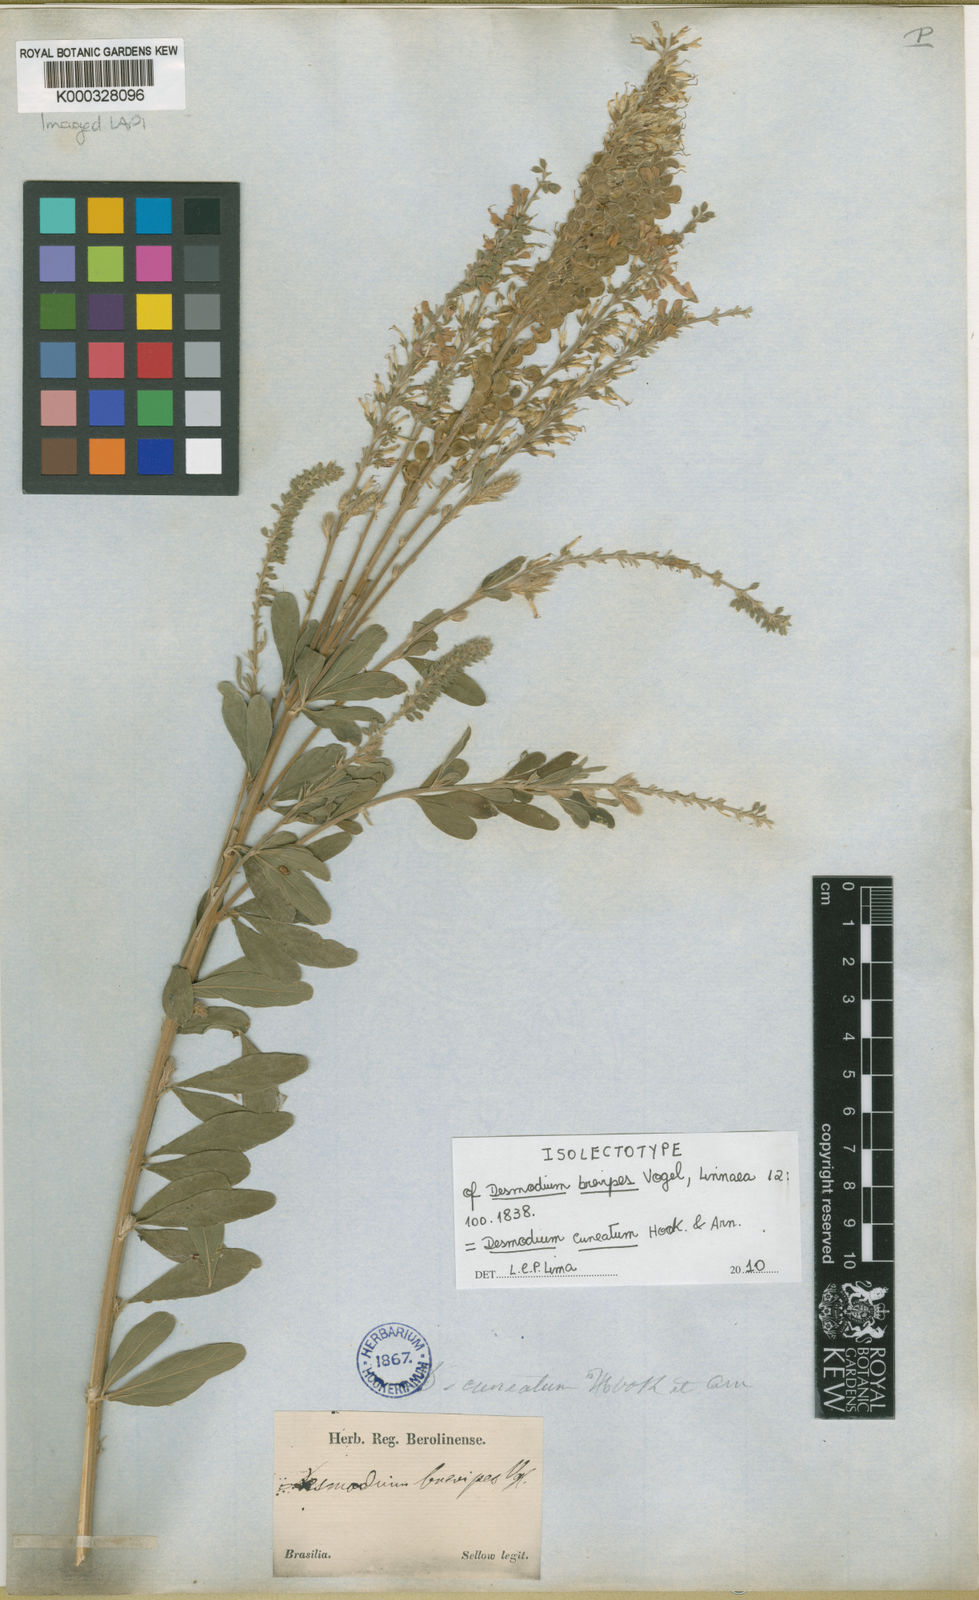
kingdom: Plantae
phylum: Tracheophyta
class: Magnoliopsida
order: Fabales
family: Fabaceae
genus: Desmodium
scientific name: Desmodium cuneatum
